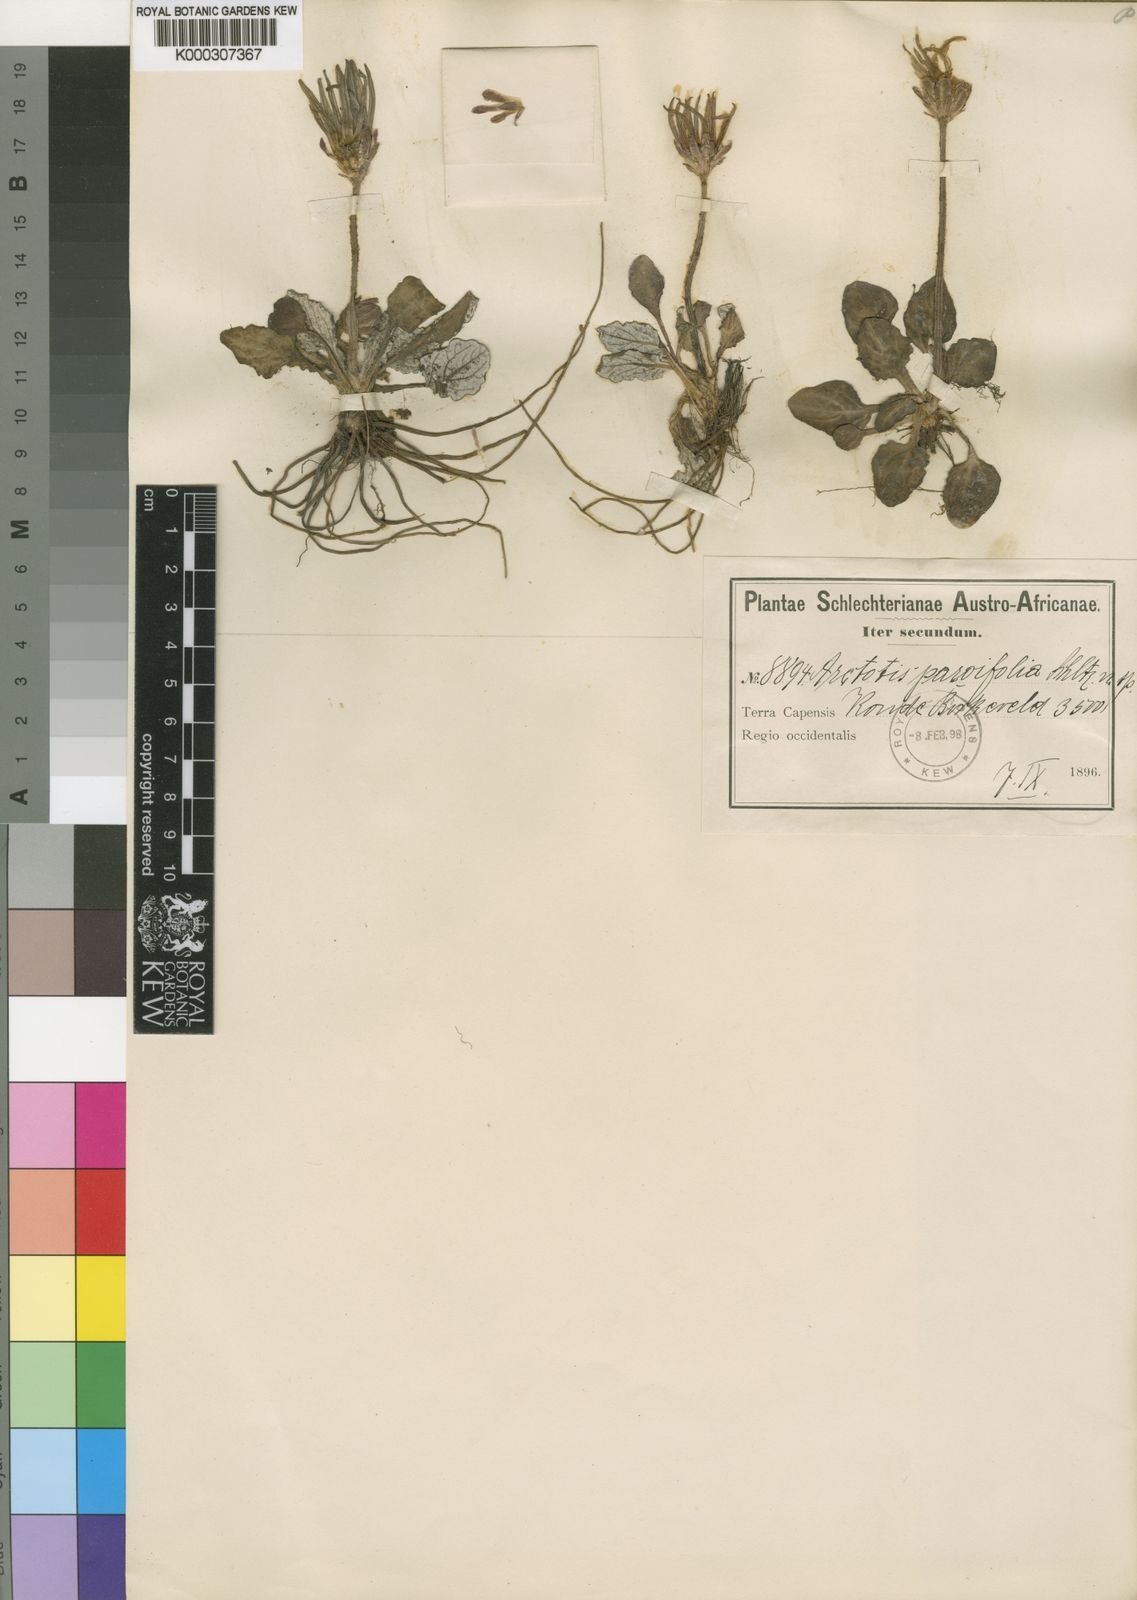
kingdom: Plantae
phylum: Tracheophyta
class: Magnoliopsida
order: Asterales
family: Asteraceae
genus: Haplocarpha
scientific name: Haplocarpha parvifolia
